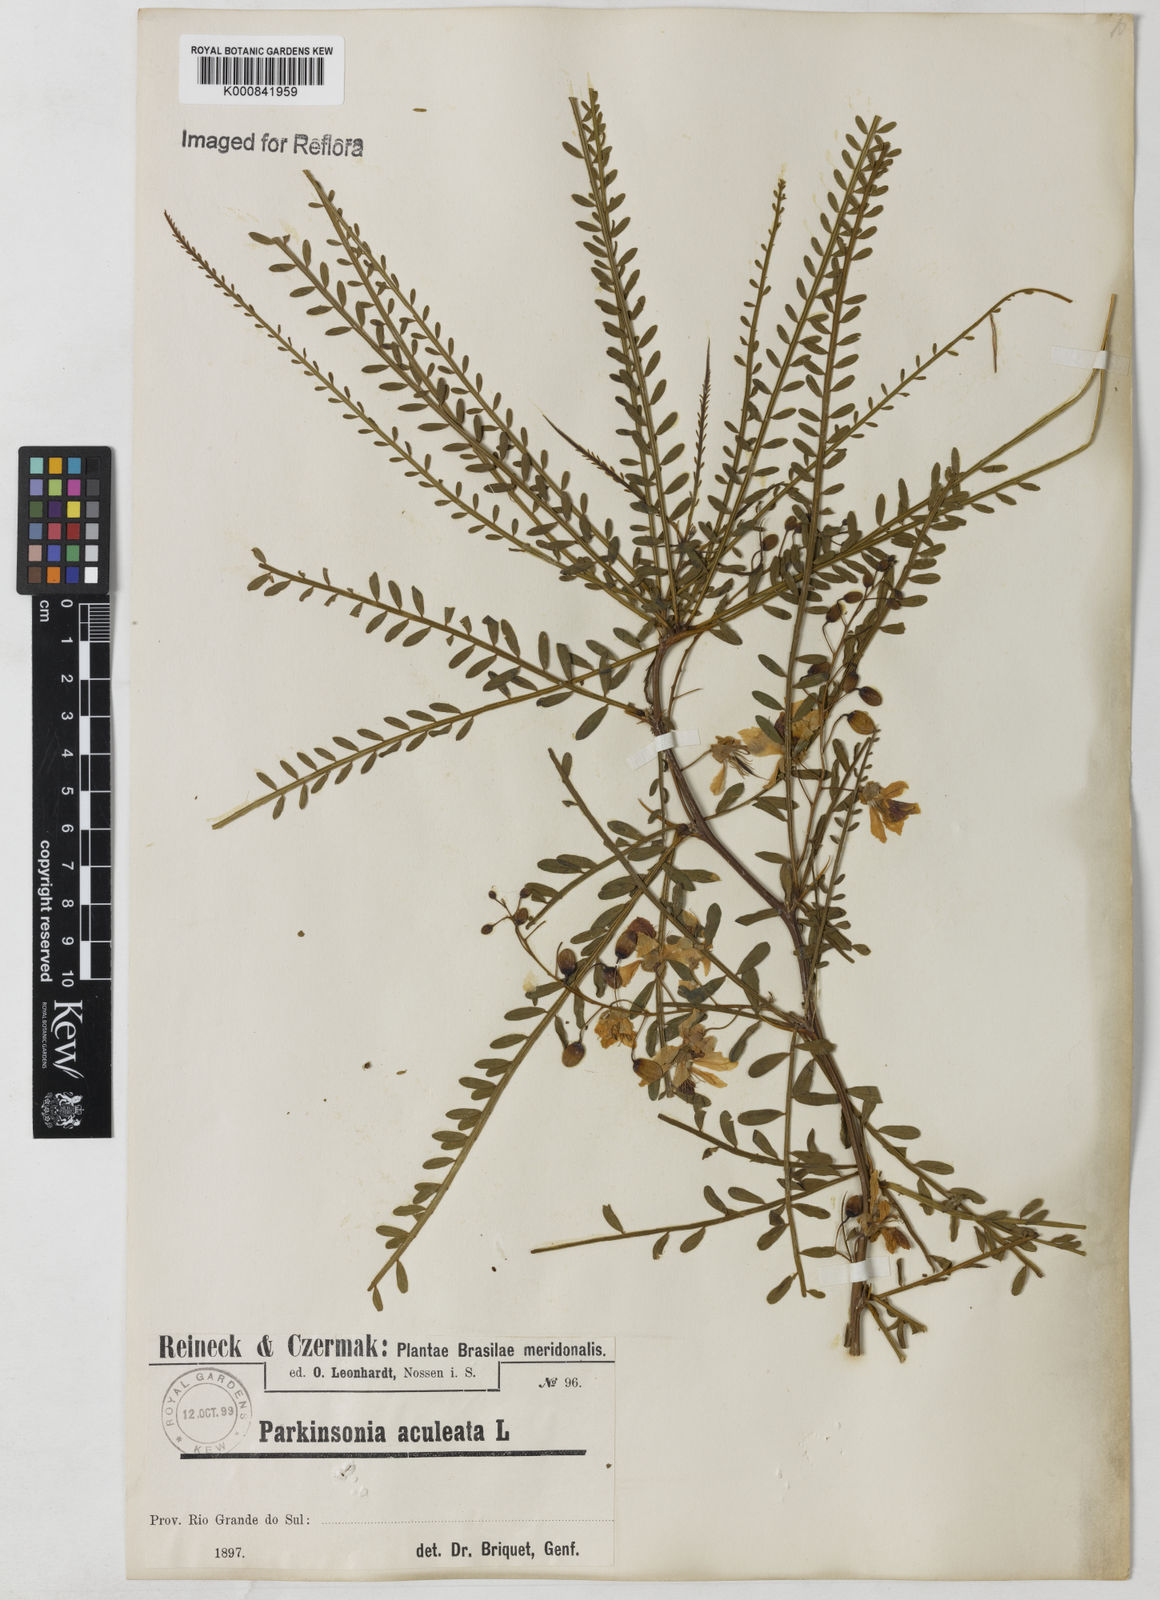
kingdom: Plantae
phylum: Tracheophyta
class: Magnoliopsida
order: Fabales
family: Fabaceae
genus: Parkinsonia
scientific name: Parkinsonia aculeata
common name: Jerusalem thorn
